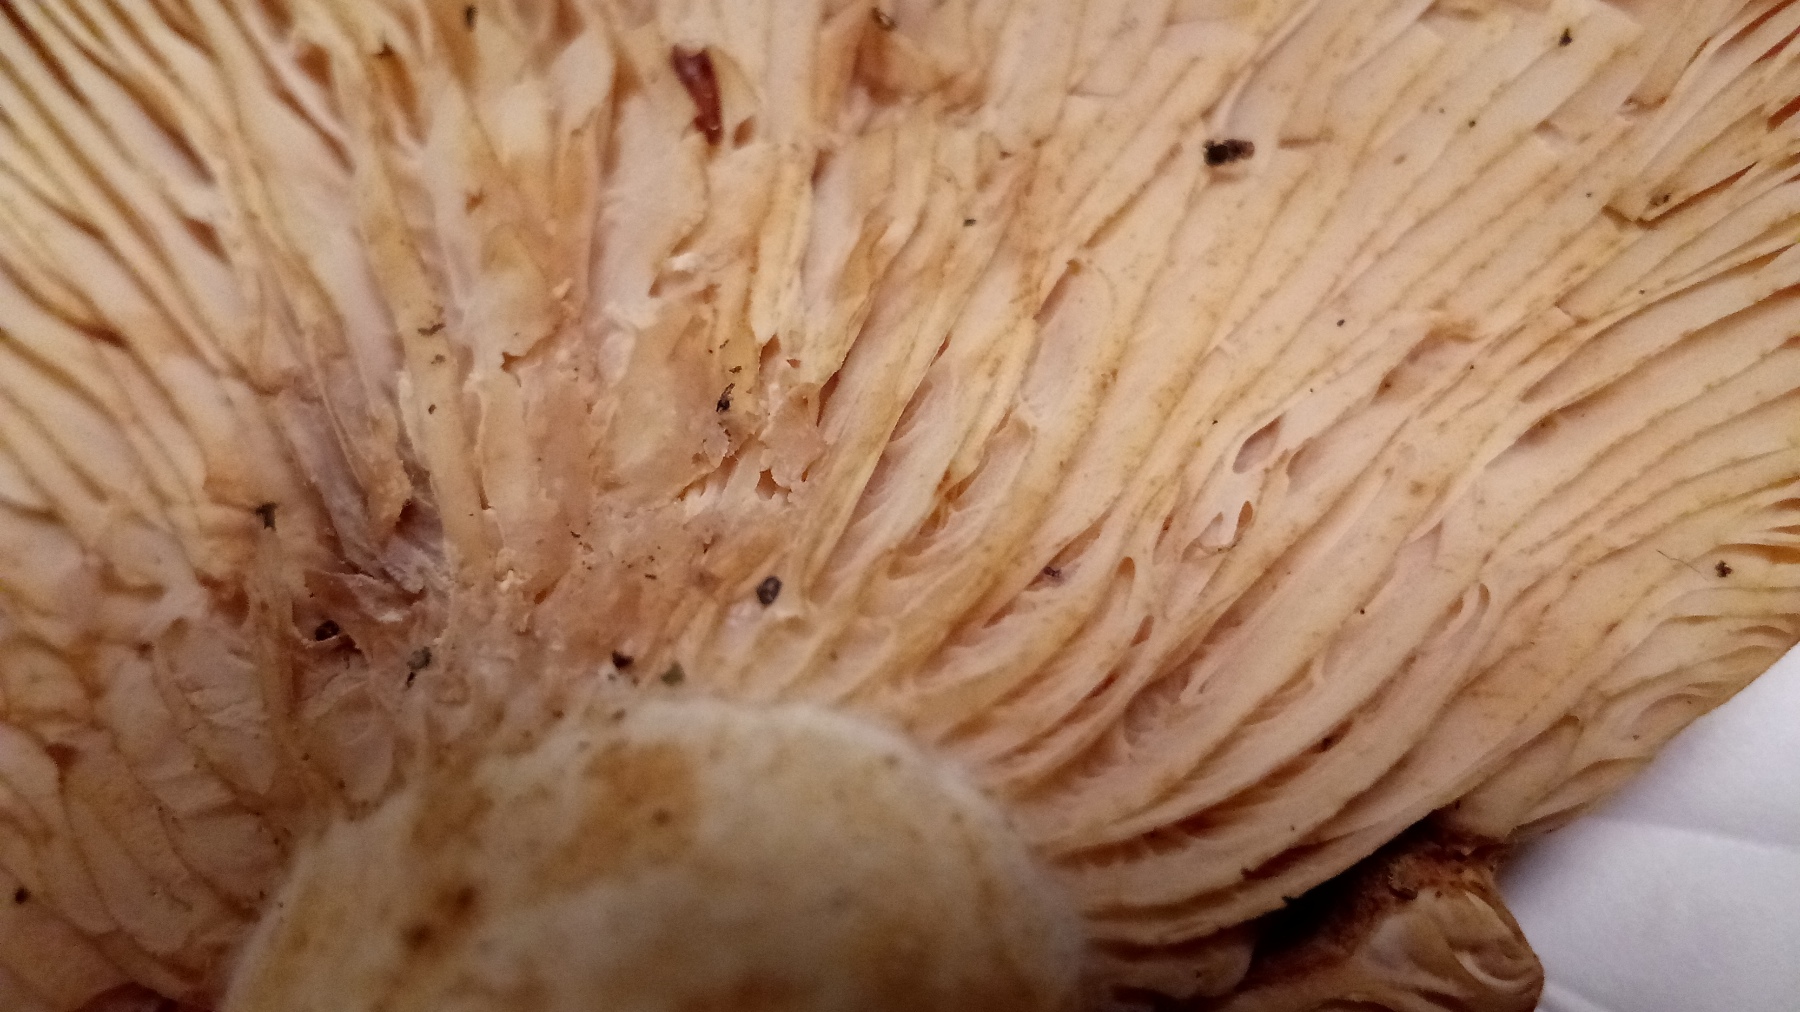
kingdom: Fungi
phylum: Basidiomycota
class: Agaricomycetes
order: Russulales
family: Russulaceae
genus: Lactarius
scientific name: Lactarius acerrimus
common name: brændende mælkehat
